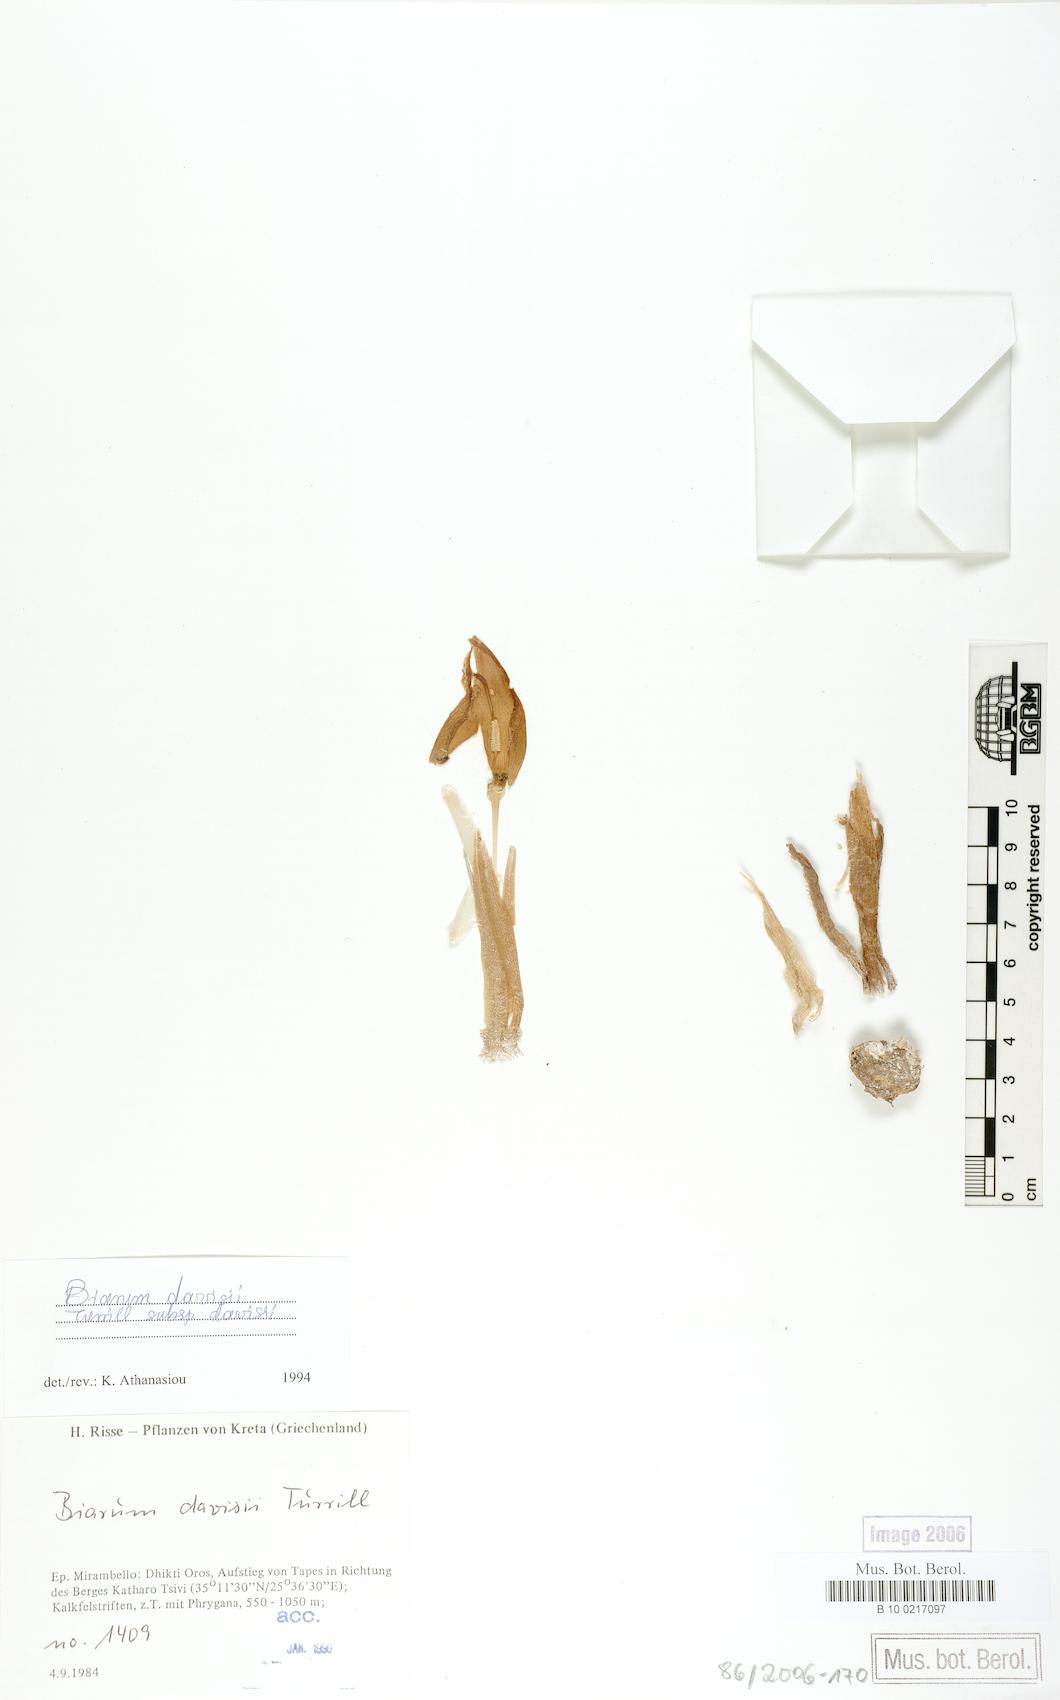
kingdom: Plantae
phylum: Tracheophyta
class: Liliopsida
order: Alismatales
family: Araceae
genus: Biarum
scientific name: Biarum davisii
